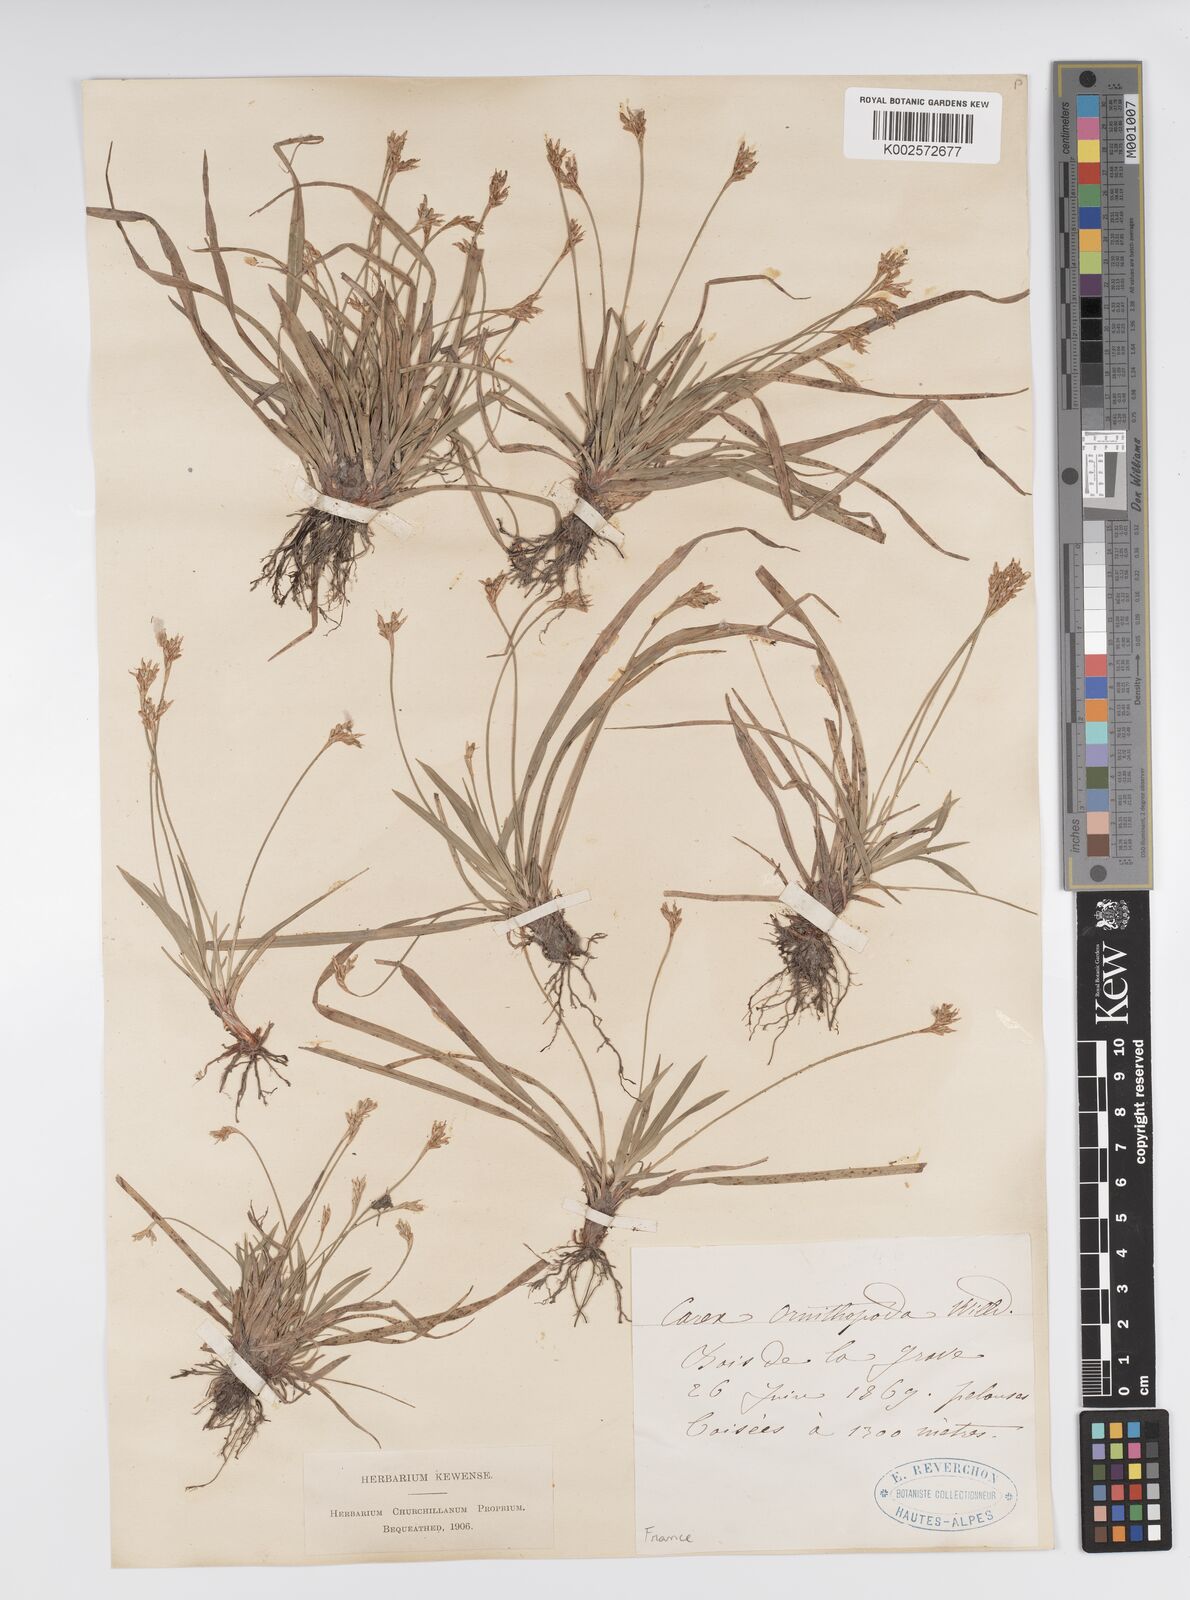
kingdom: Plantae
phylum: Tracheophyta
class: Liliopsida
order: Poales
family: Cyperaceae
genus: Carex
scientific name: Carex ornithopoda
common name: Bird's-foot sedge
